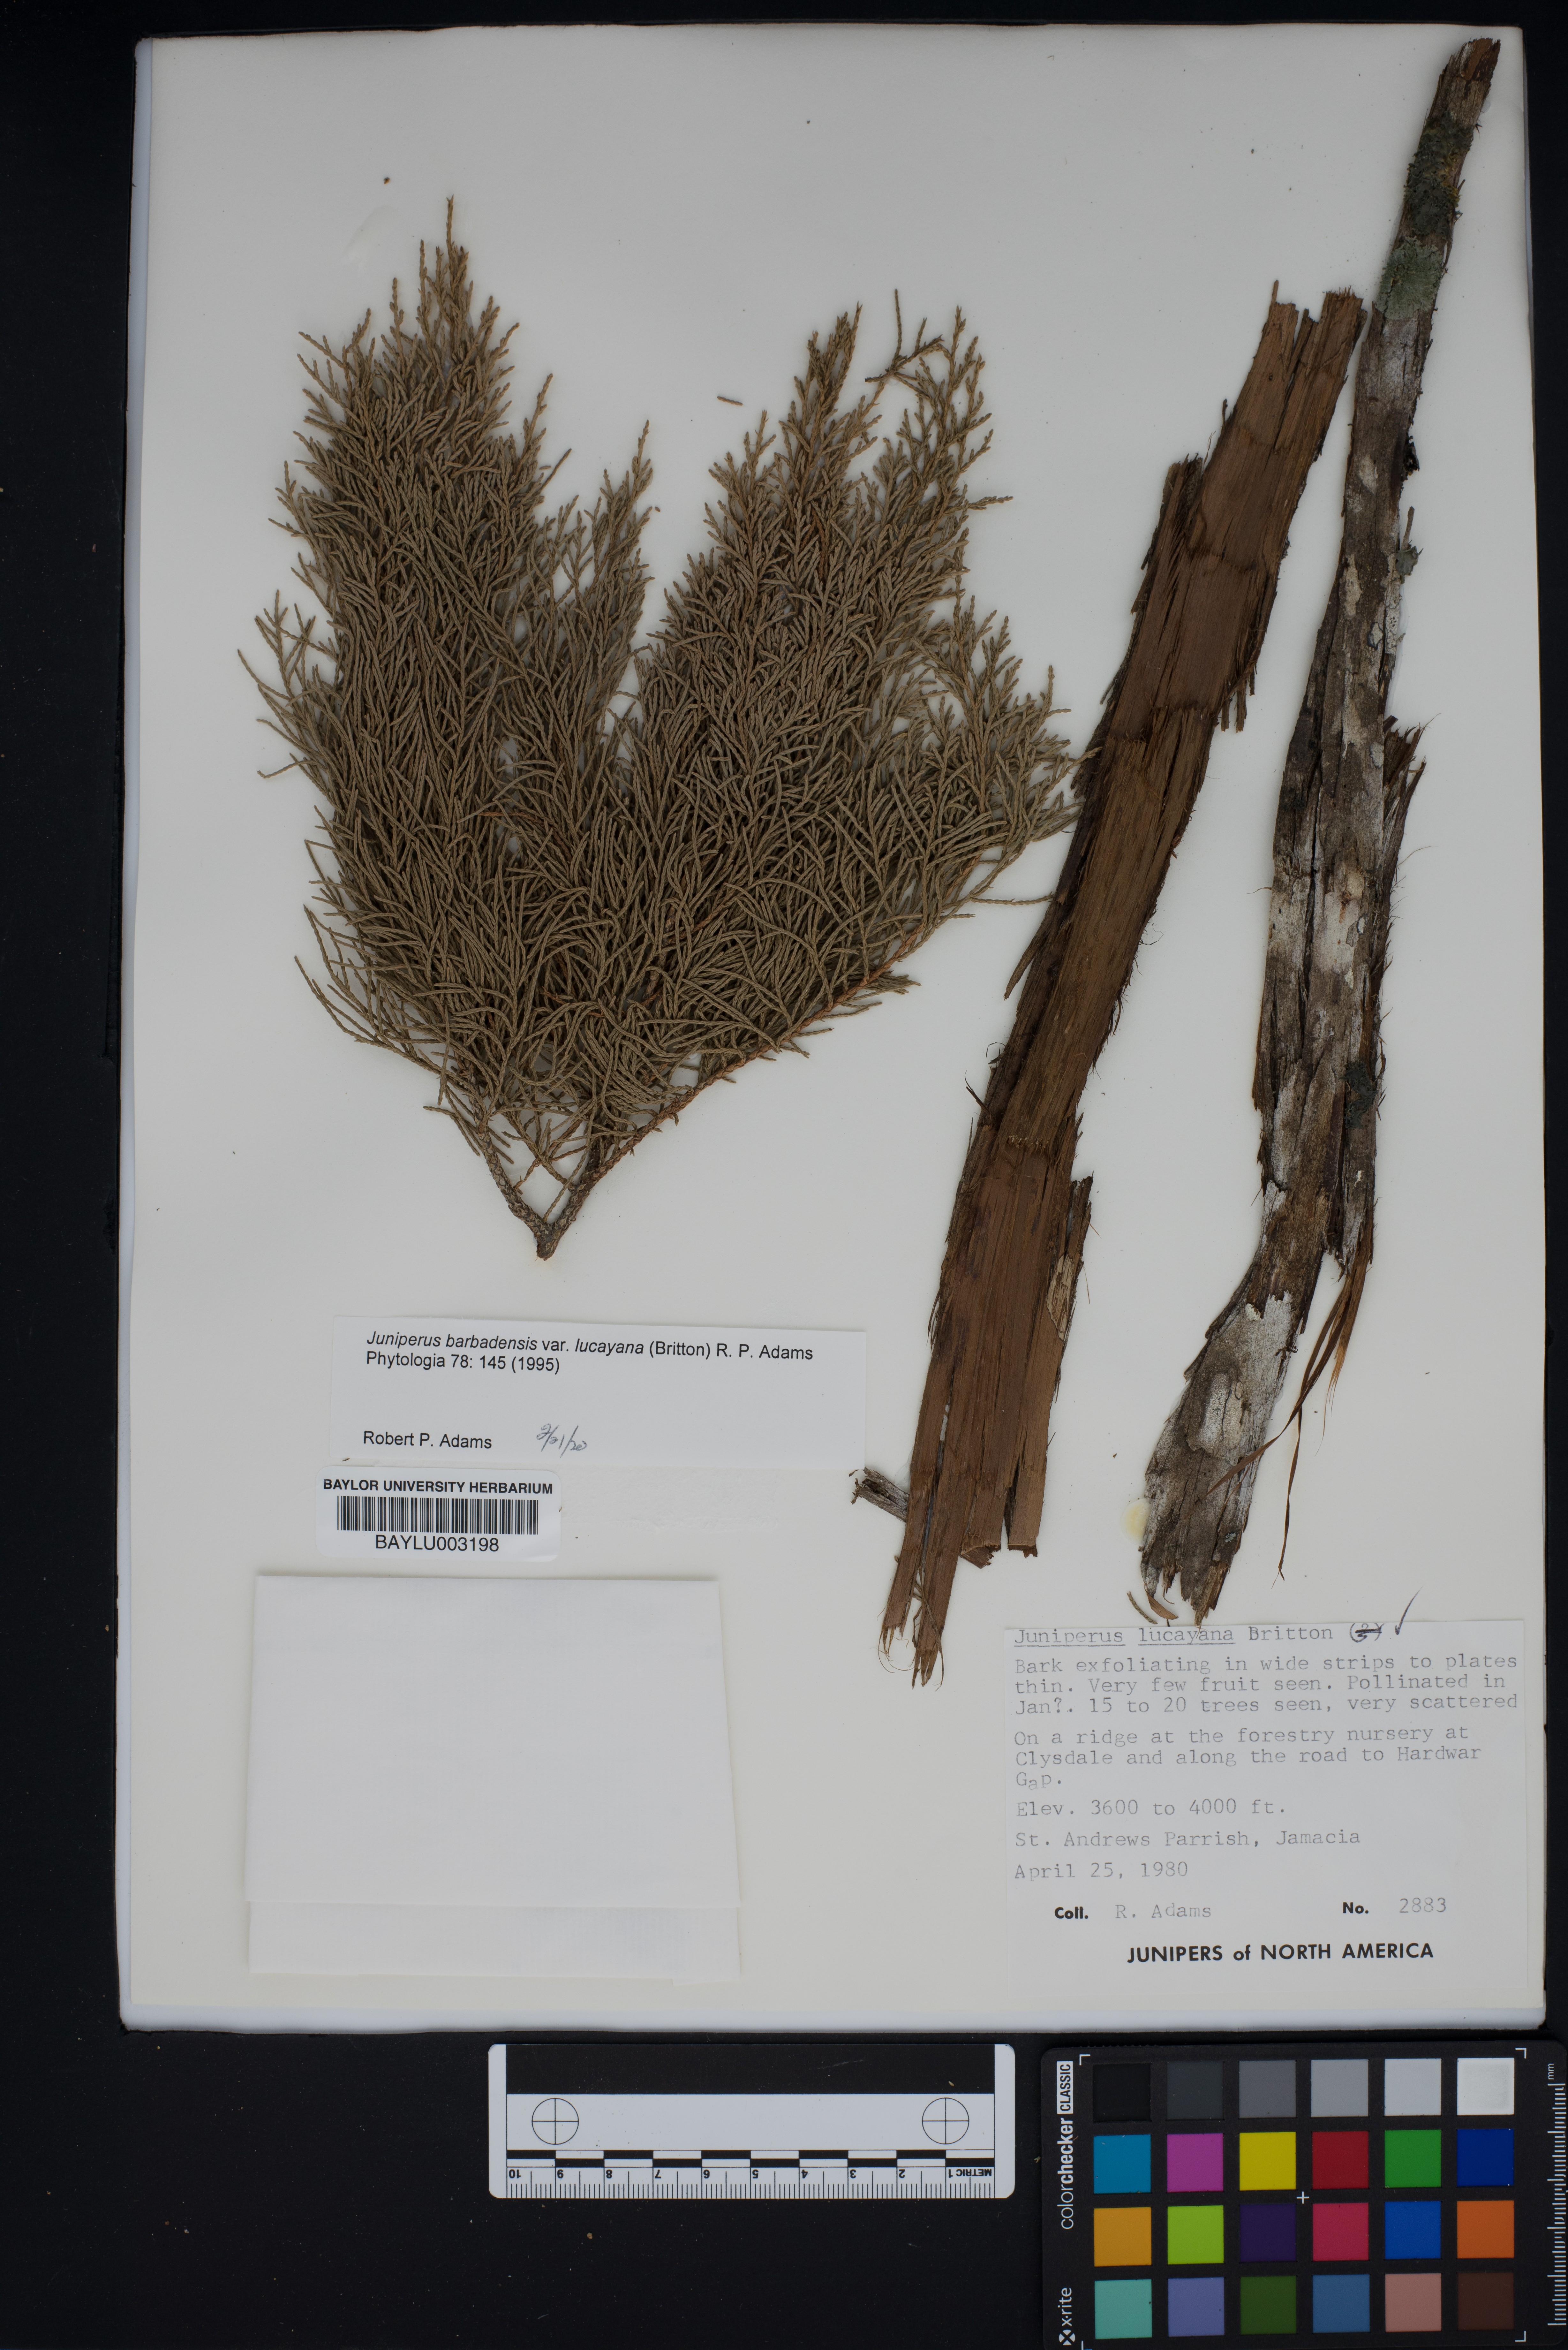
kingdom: Plantae
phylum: Tracheophyta
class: Pinopsida
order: Pinales
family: Cupressaceae
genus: Juniperus
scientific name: Juniperus barbadensis
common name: West indies juniper
